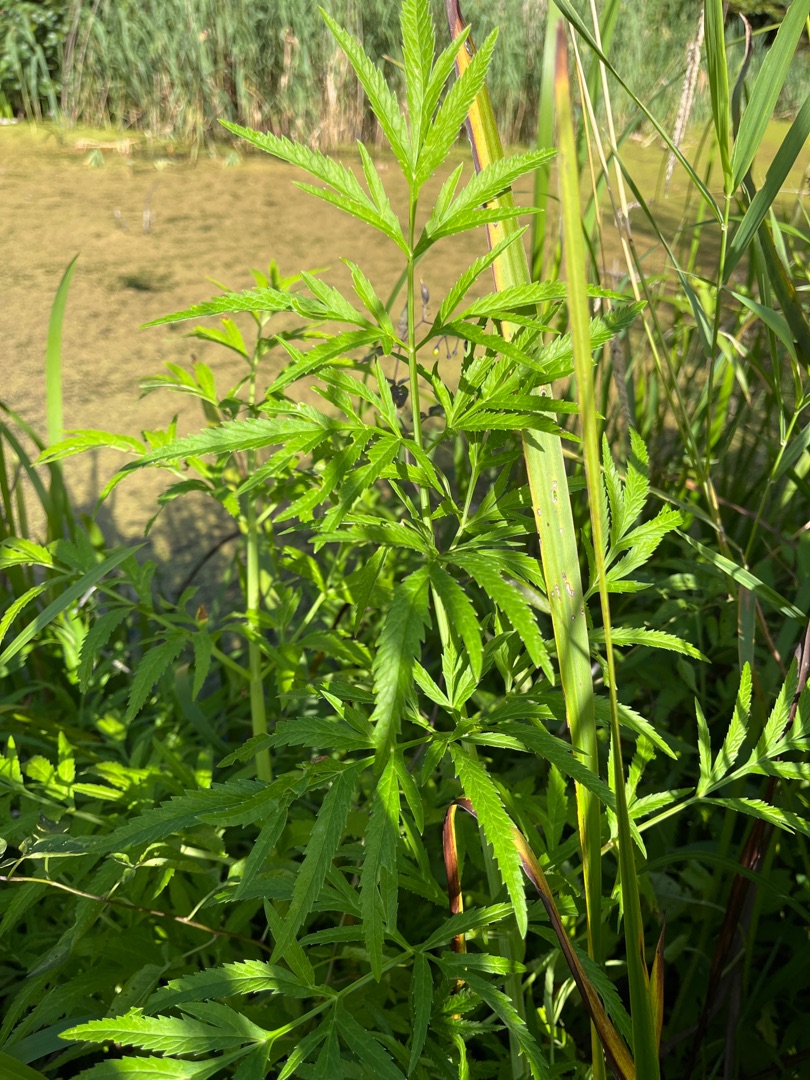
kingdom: Plantae
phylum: Tracheophyta
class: Magnoliopsida
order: Apiales
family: Apiaceae
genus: Cicuta
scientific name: Cicuta virosa
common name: Gifttyde
